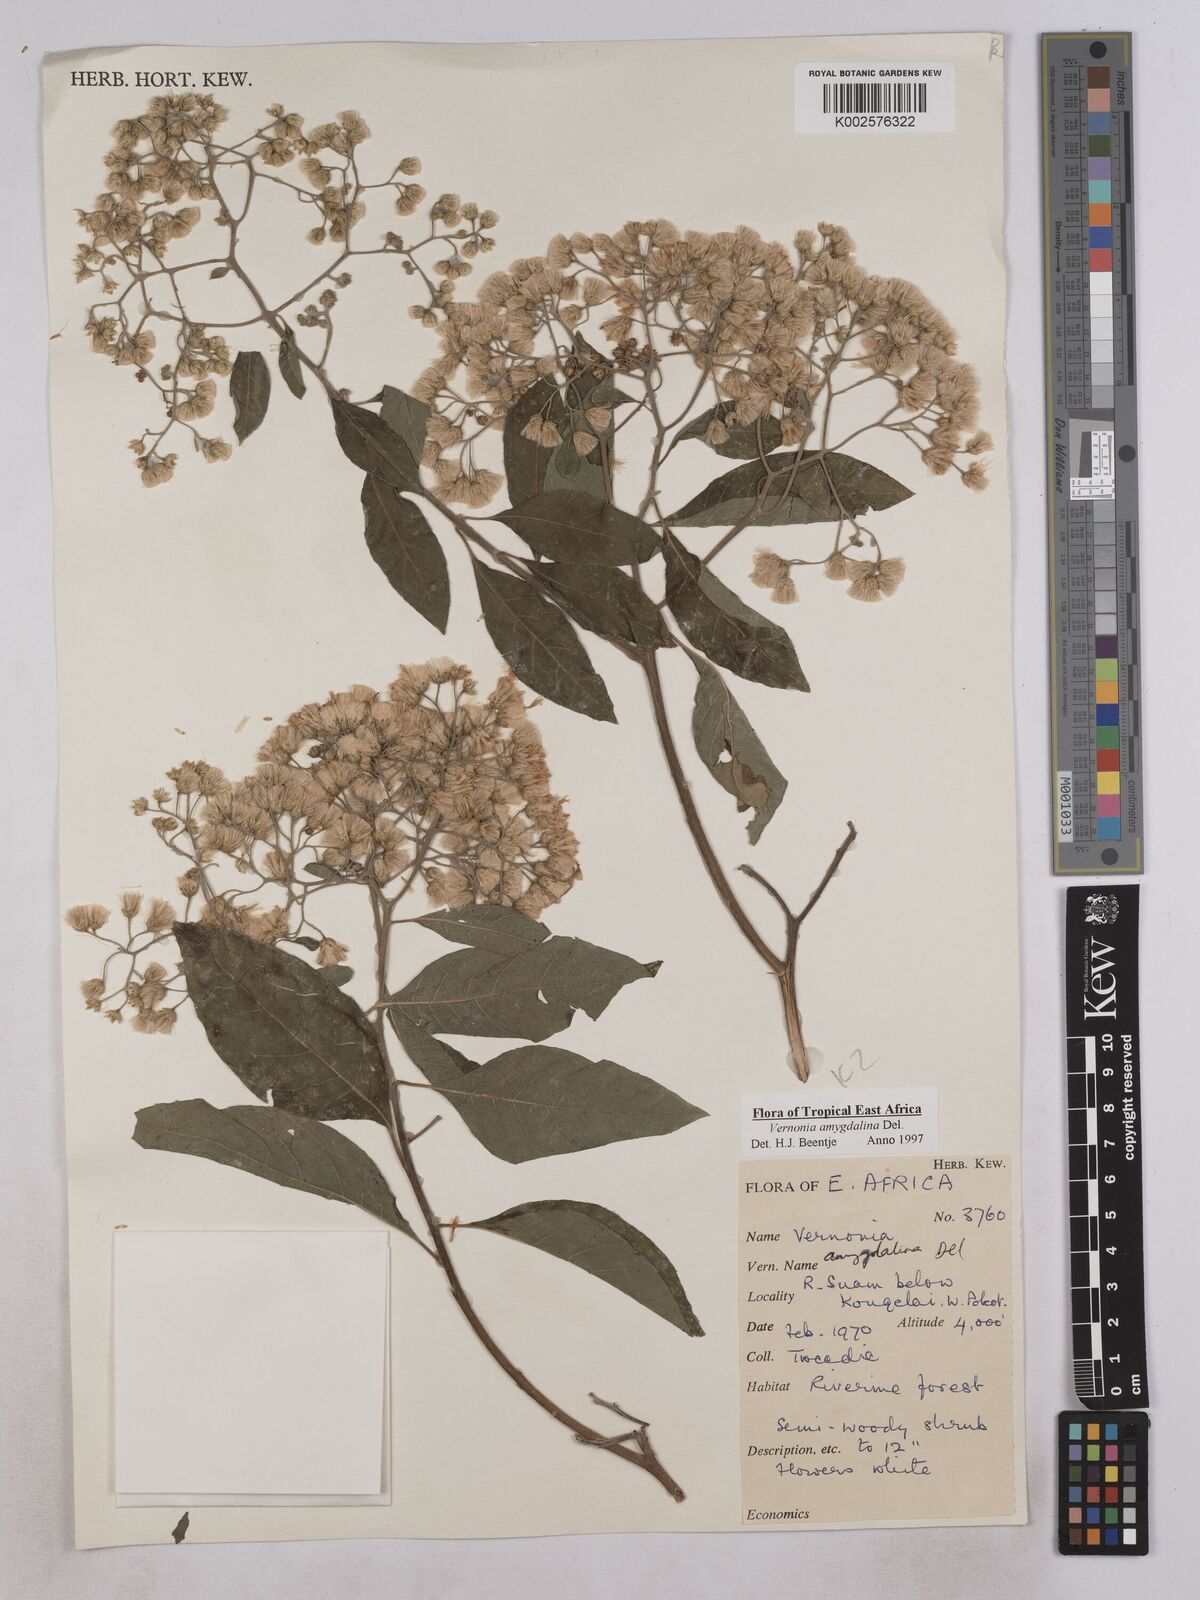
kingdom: Plantae
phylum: Tracheophyta
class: Magnoliopsida
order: Asterales
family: Asteraceae
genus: Gymnanthemum
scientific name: Gymnanthemum amygdalinum
